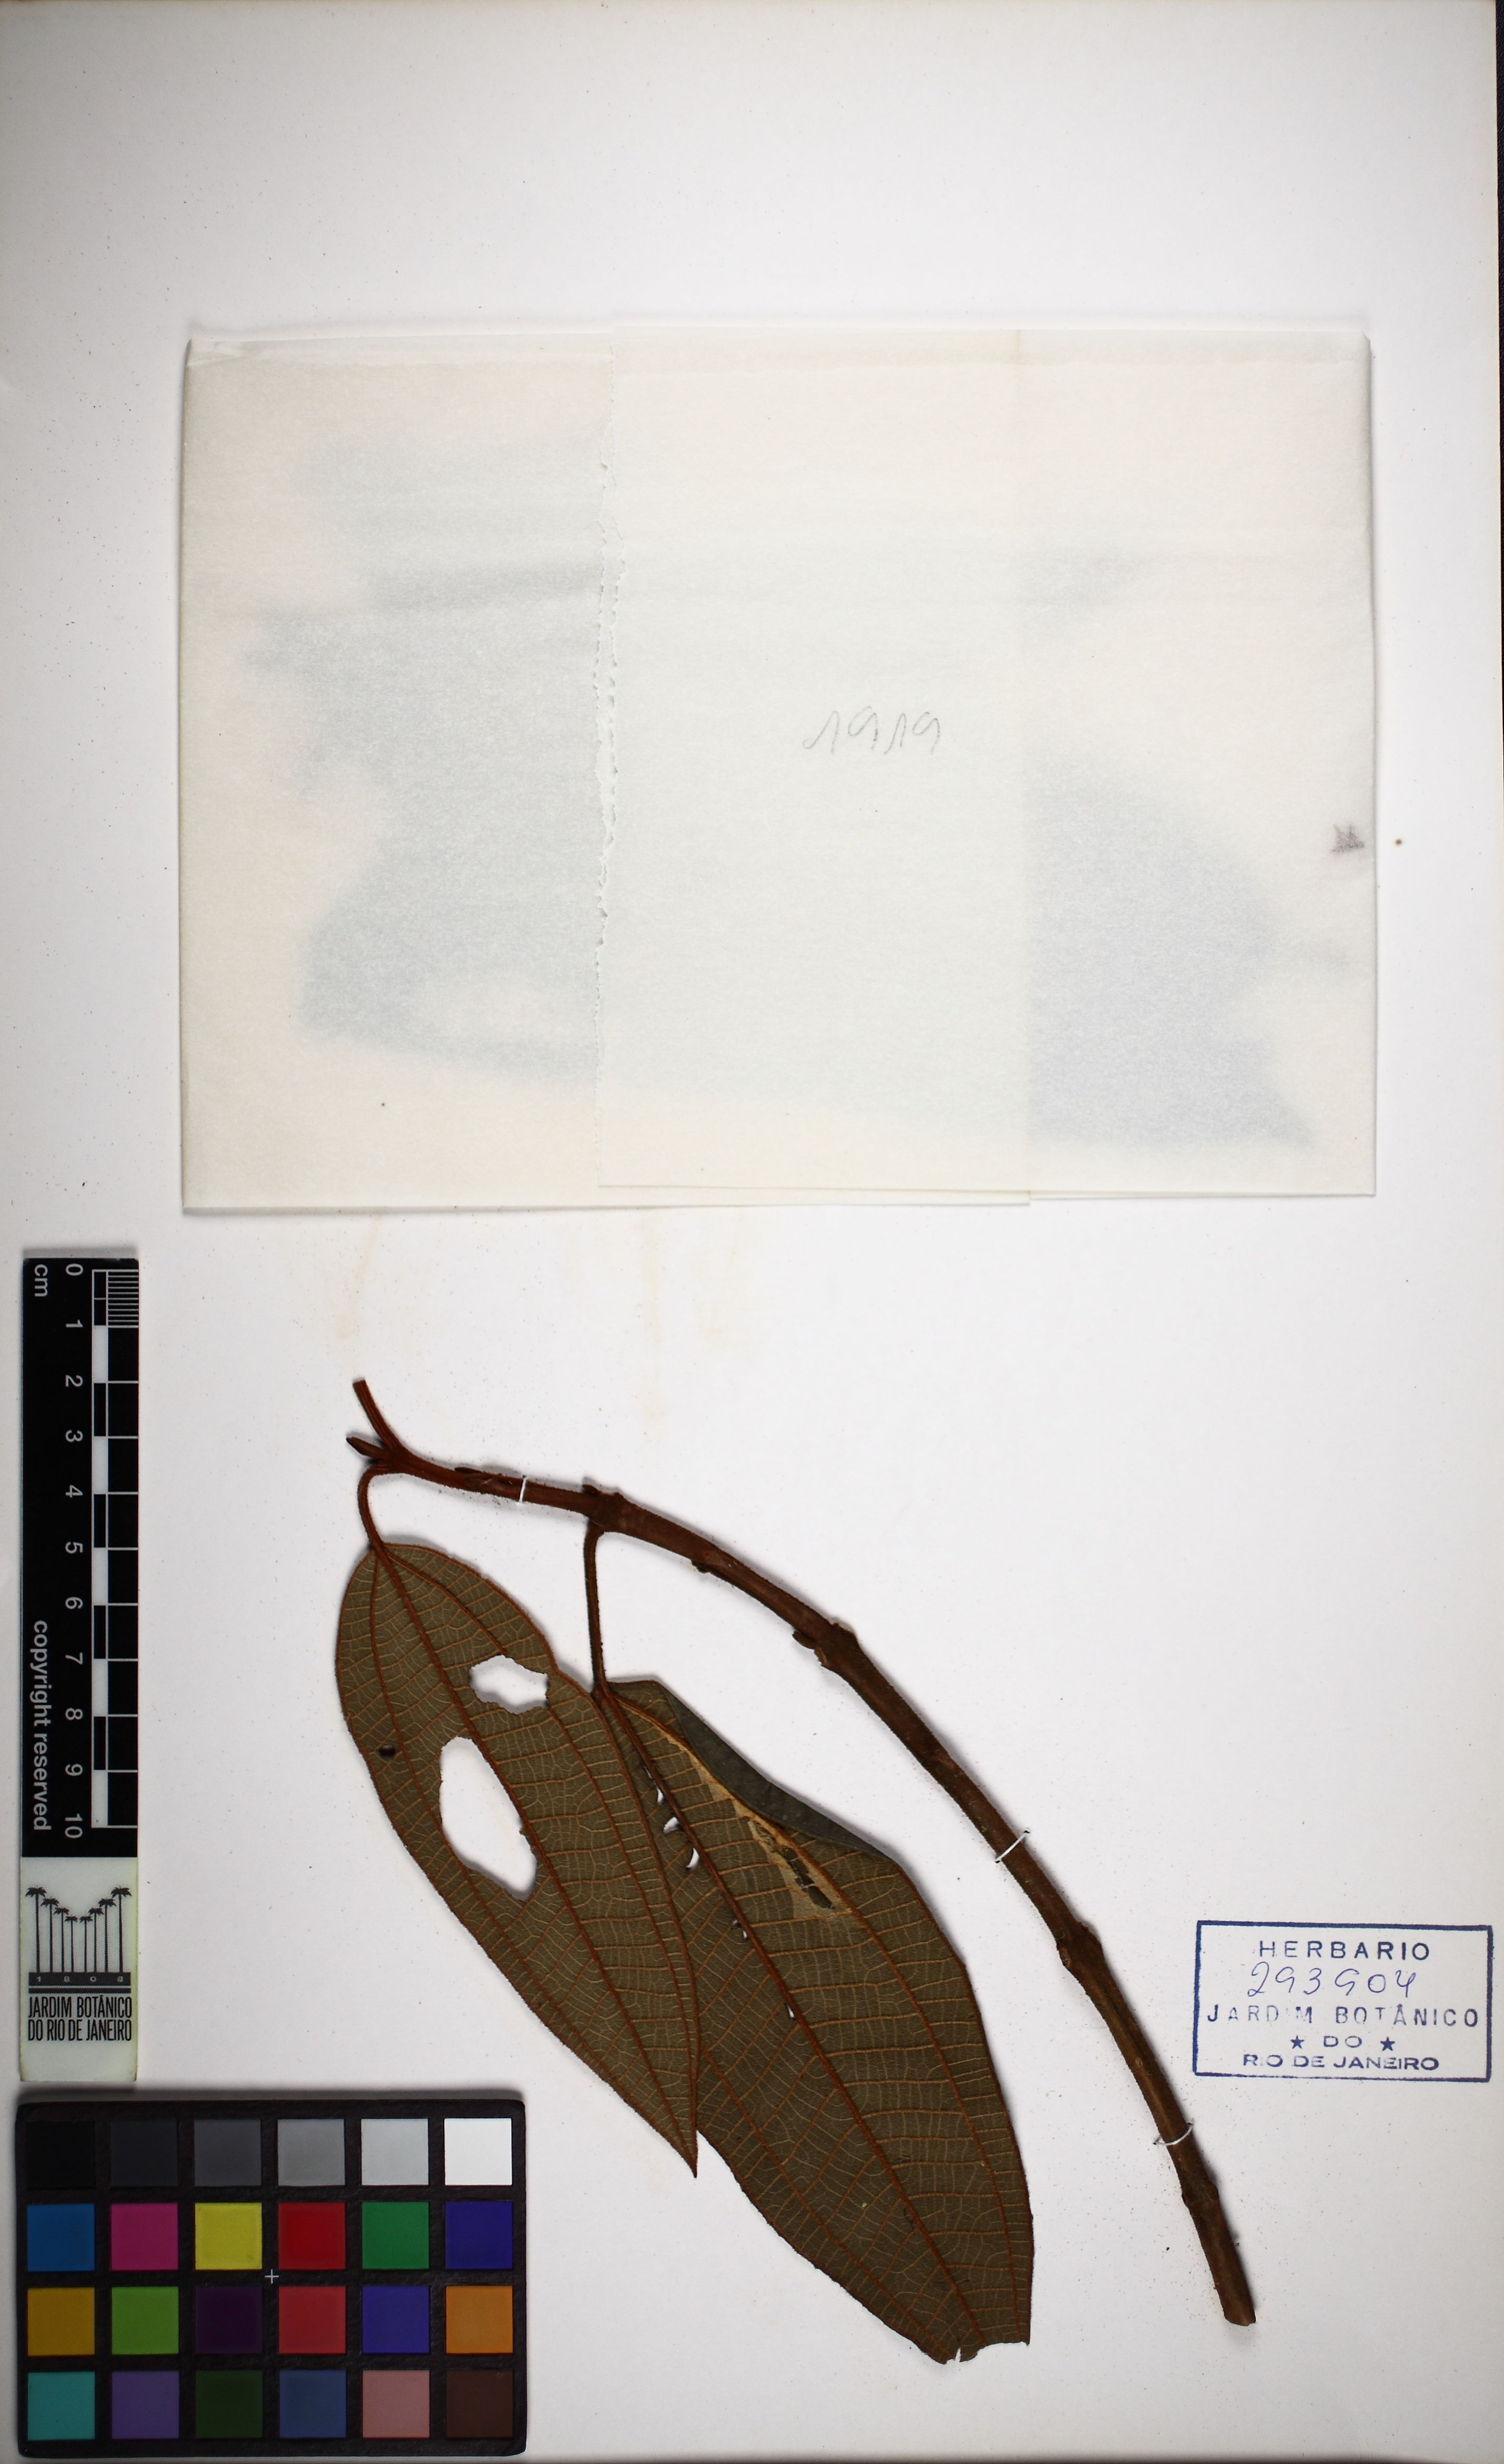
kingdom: Plantae
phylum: Tracheophyta
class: Magnoliopsida
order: Myrtales
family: Melastomataceae
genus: Miconia
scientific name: Miconia octopetala
